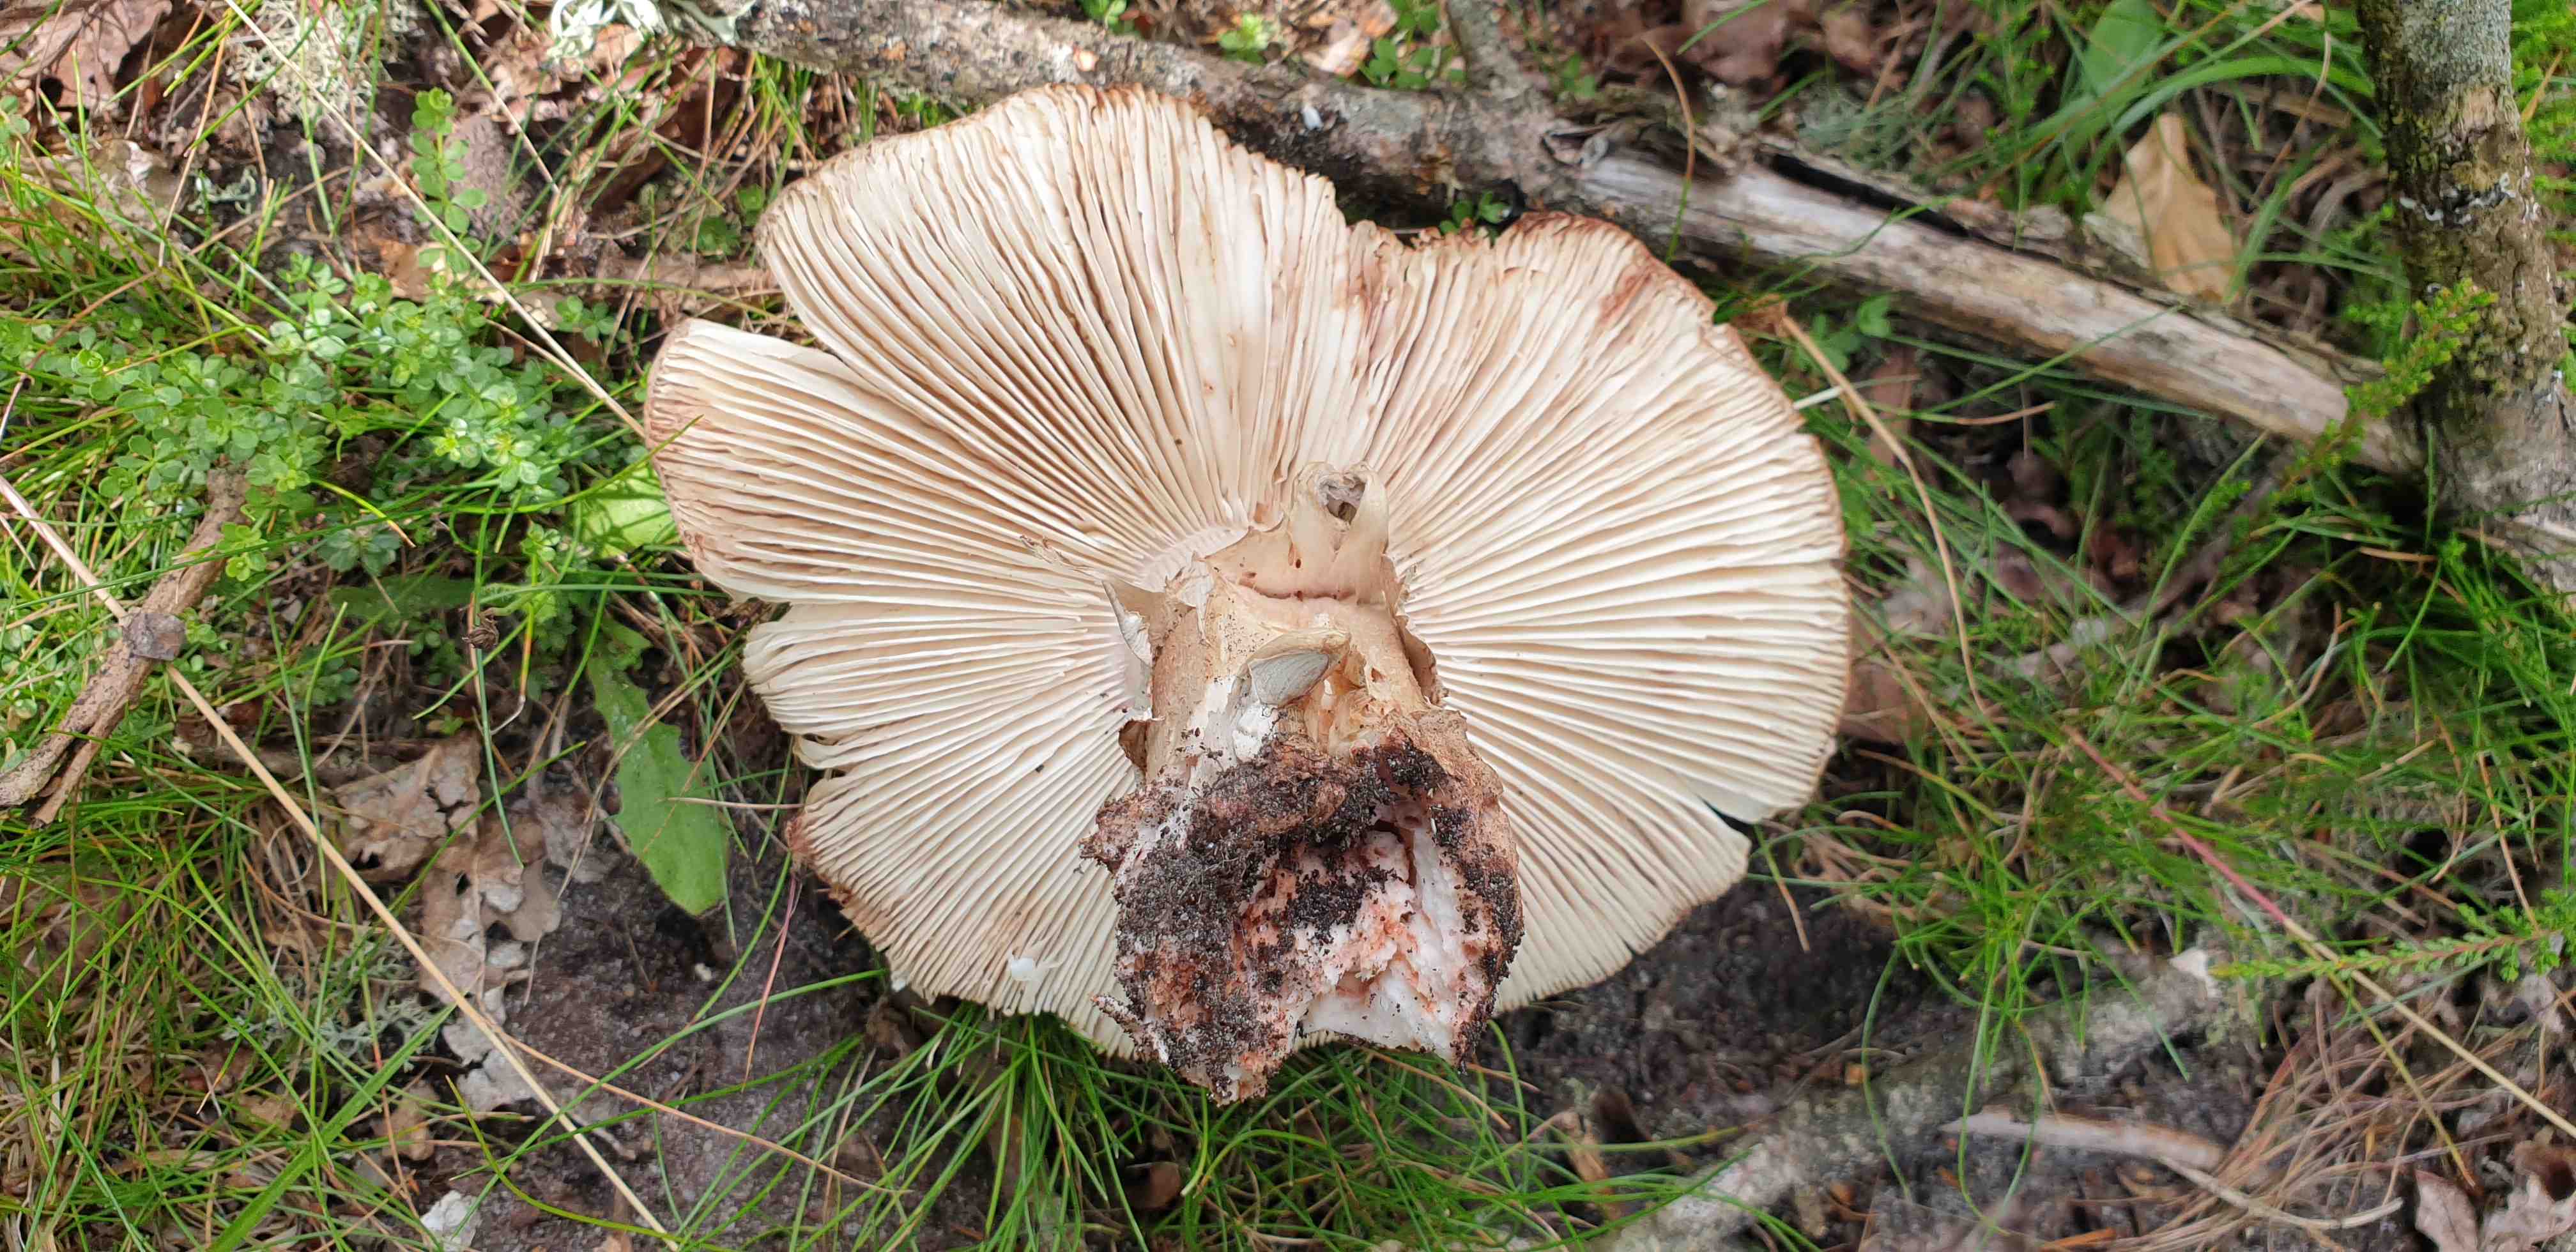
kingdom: Fungi
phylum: Basidiomycota
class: Agaricomycetes
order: Agaricales
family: Amanitaceae
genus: Amanita
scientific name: Amanita rubescens
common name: rødmende fluesvamp
